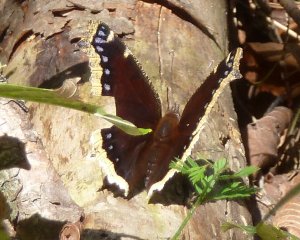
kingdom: Animalia
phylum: Arthropoda
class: Insecta
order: Lepidoptera
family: Nymphalidae
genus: Nymphalis
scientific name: Nymphalis antiopa
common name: Mourning Cloak
